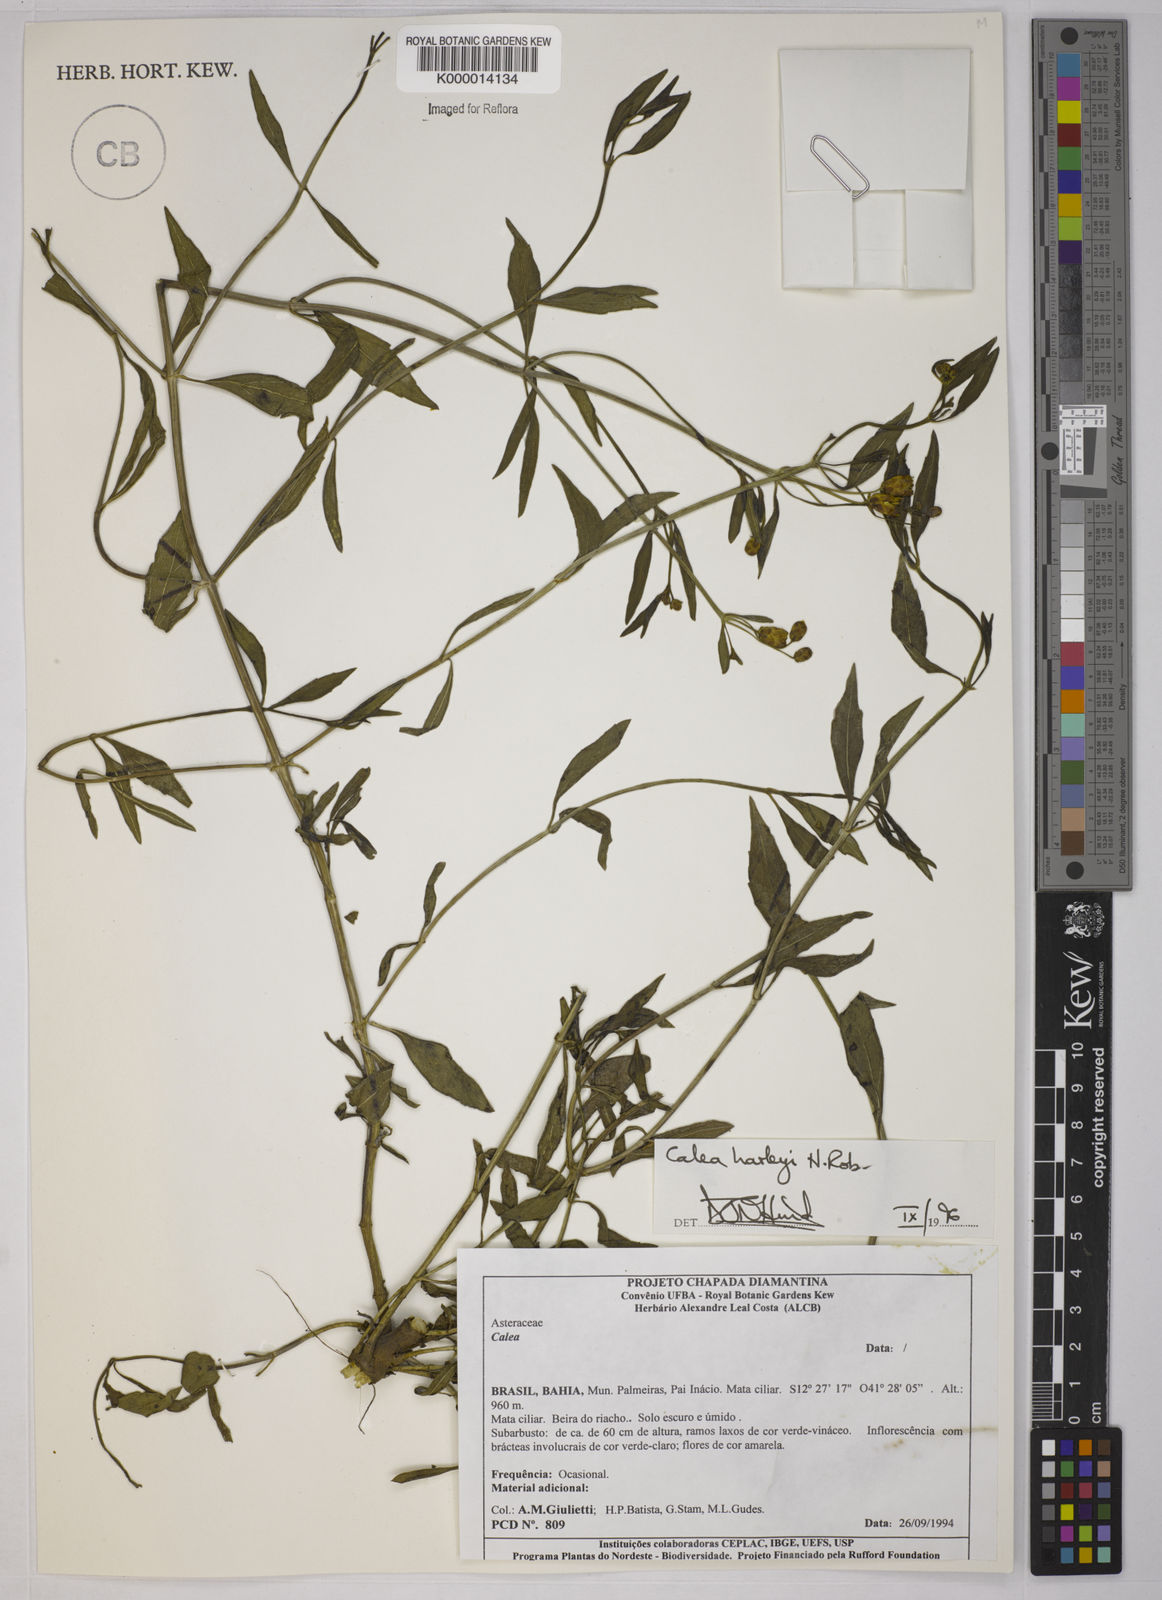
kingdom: Plantae
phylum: Tracheophyta
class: Magnoliopsida
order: Asterales
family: Asteraceae
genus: Calea
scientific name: Calea harleyi
